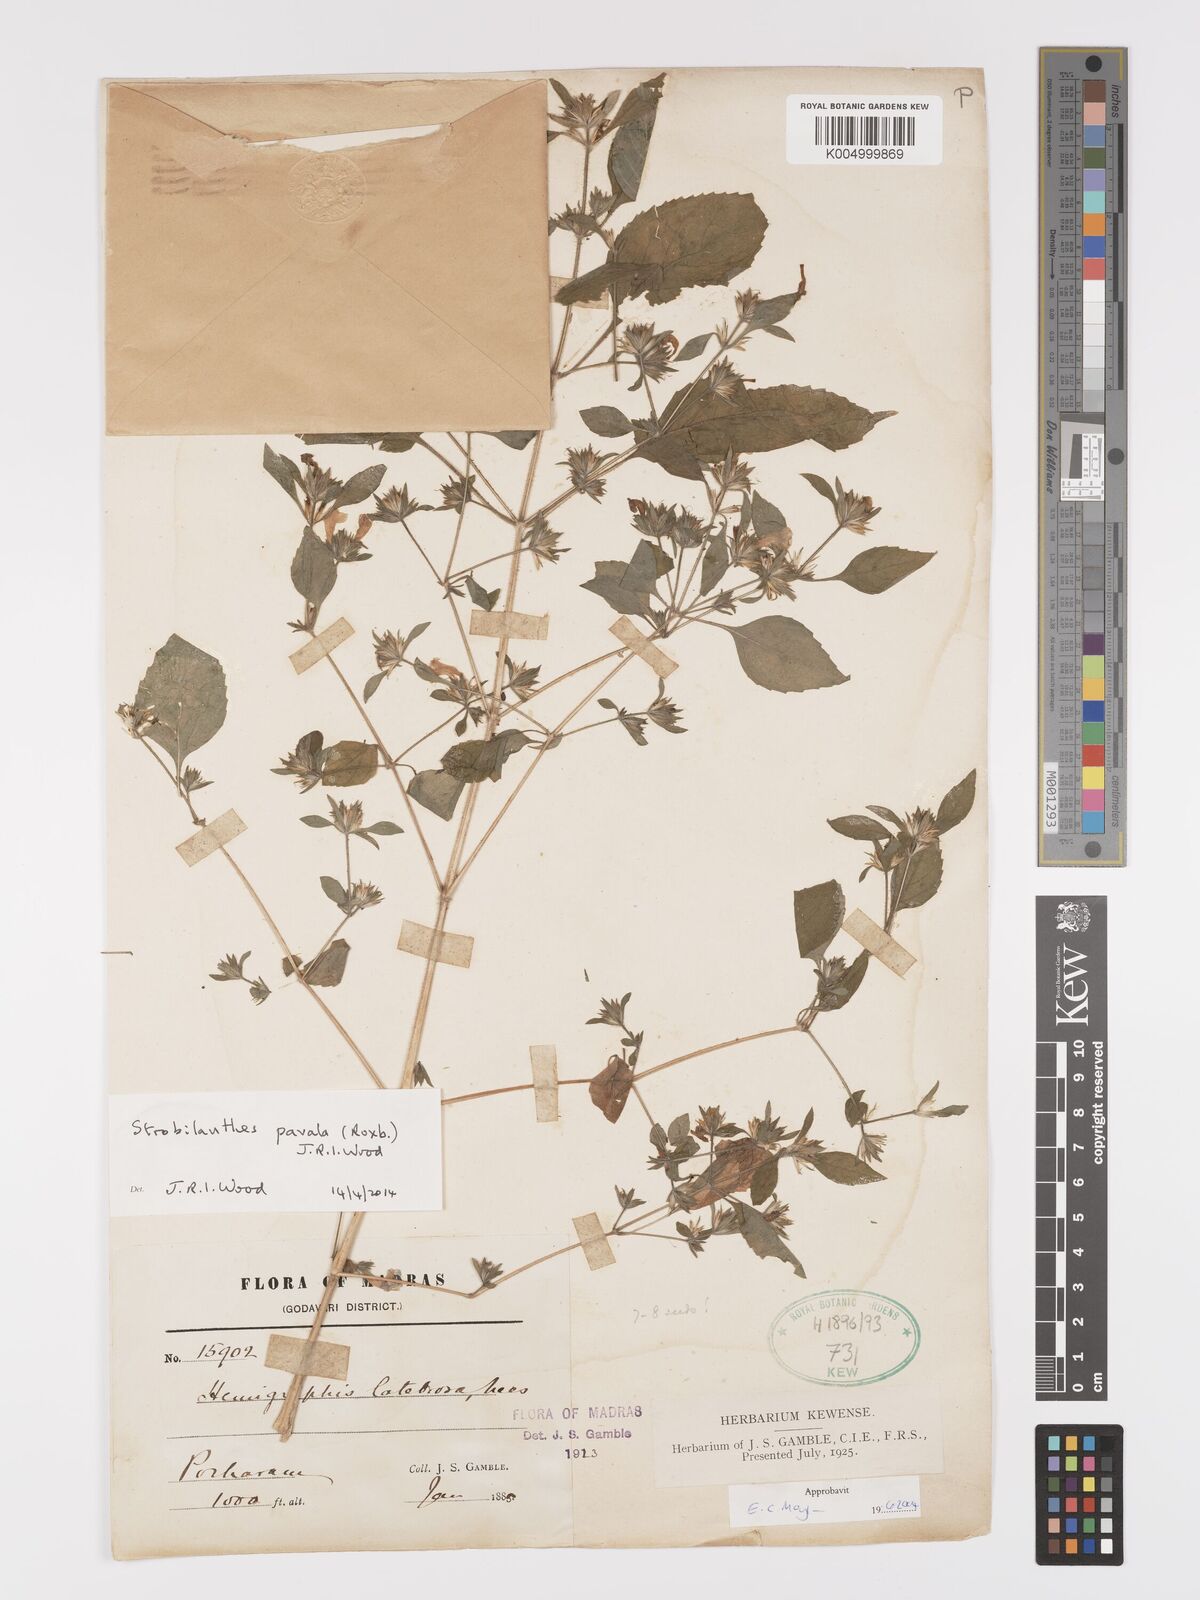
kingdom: Plantae
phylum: Tracheophyta
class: Magnoliopsida
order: Lamiales
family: Acanthaceae
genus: Strobilanthes
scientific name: Strobilanthes pavala
